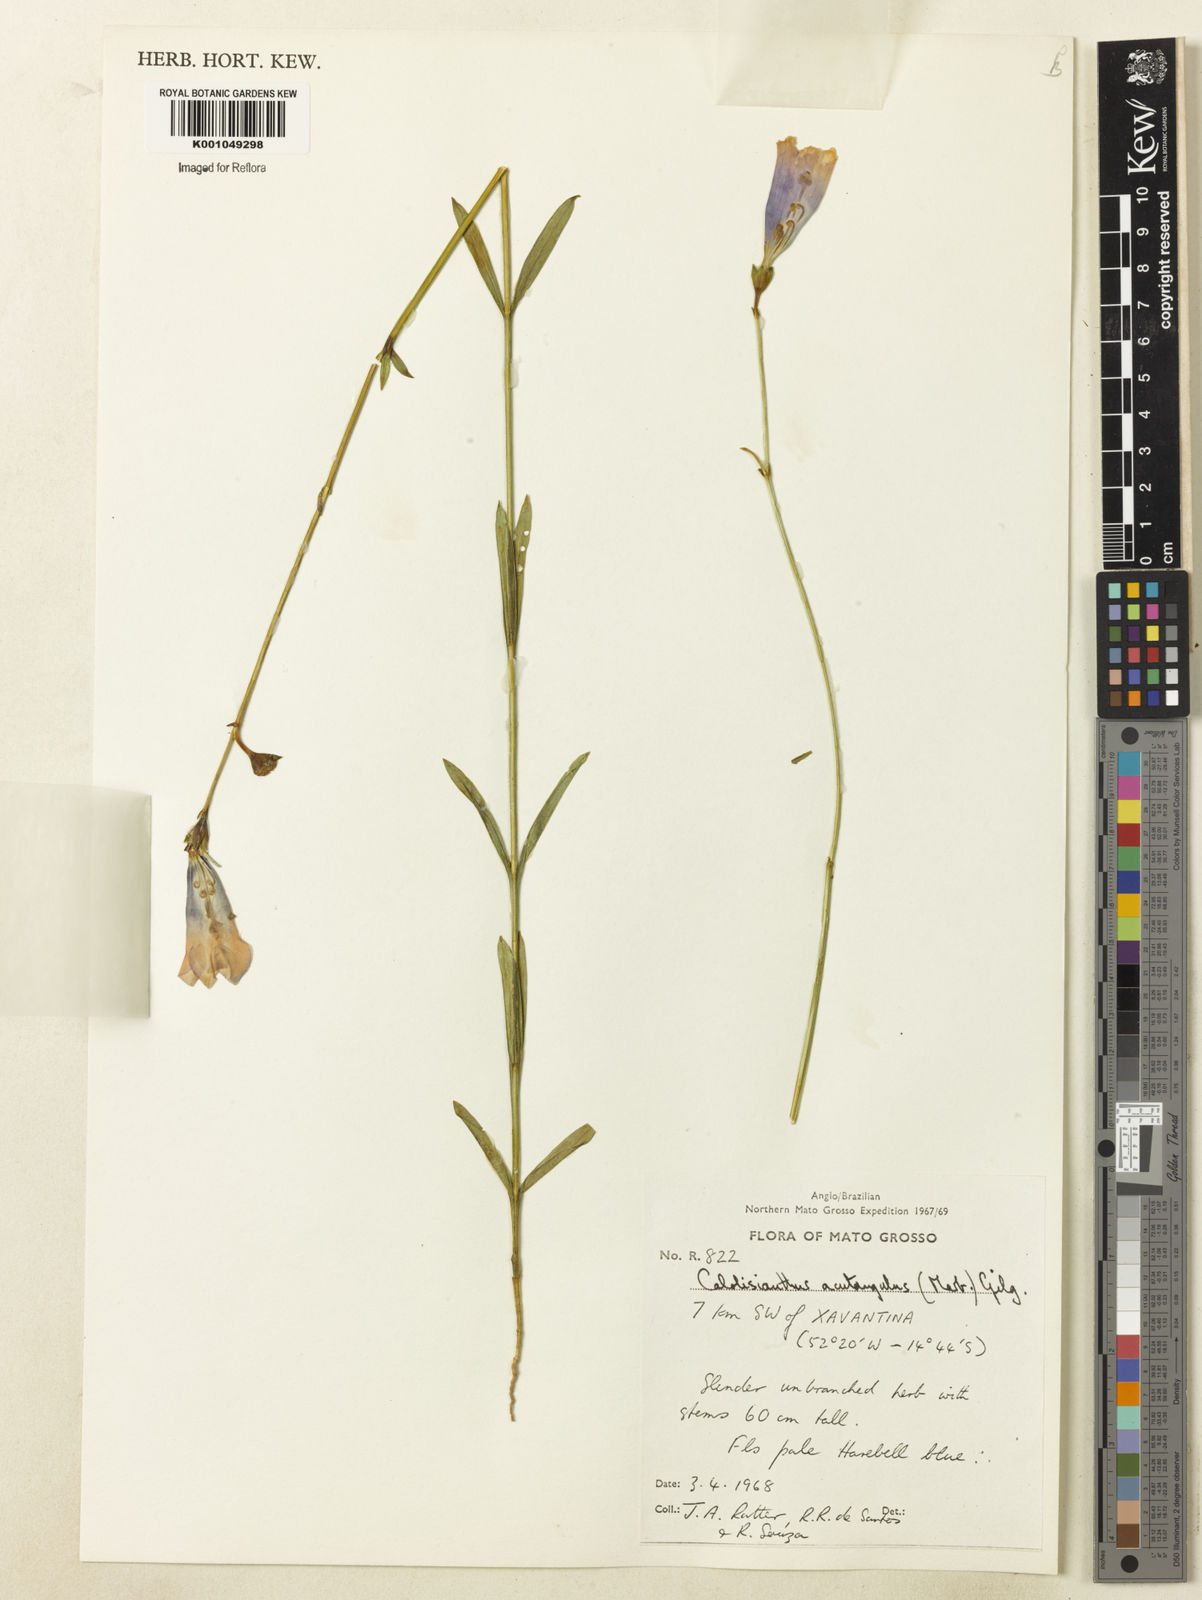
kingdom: Plantae
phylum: Tracheophyta
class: Magnoliopsida
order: Gentianales
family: Gentianaceae
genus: Lisianthius
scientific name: Lisianthius tetragonoalatus
